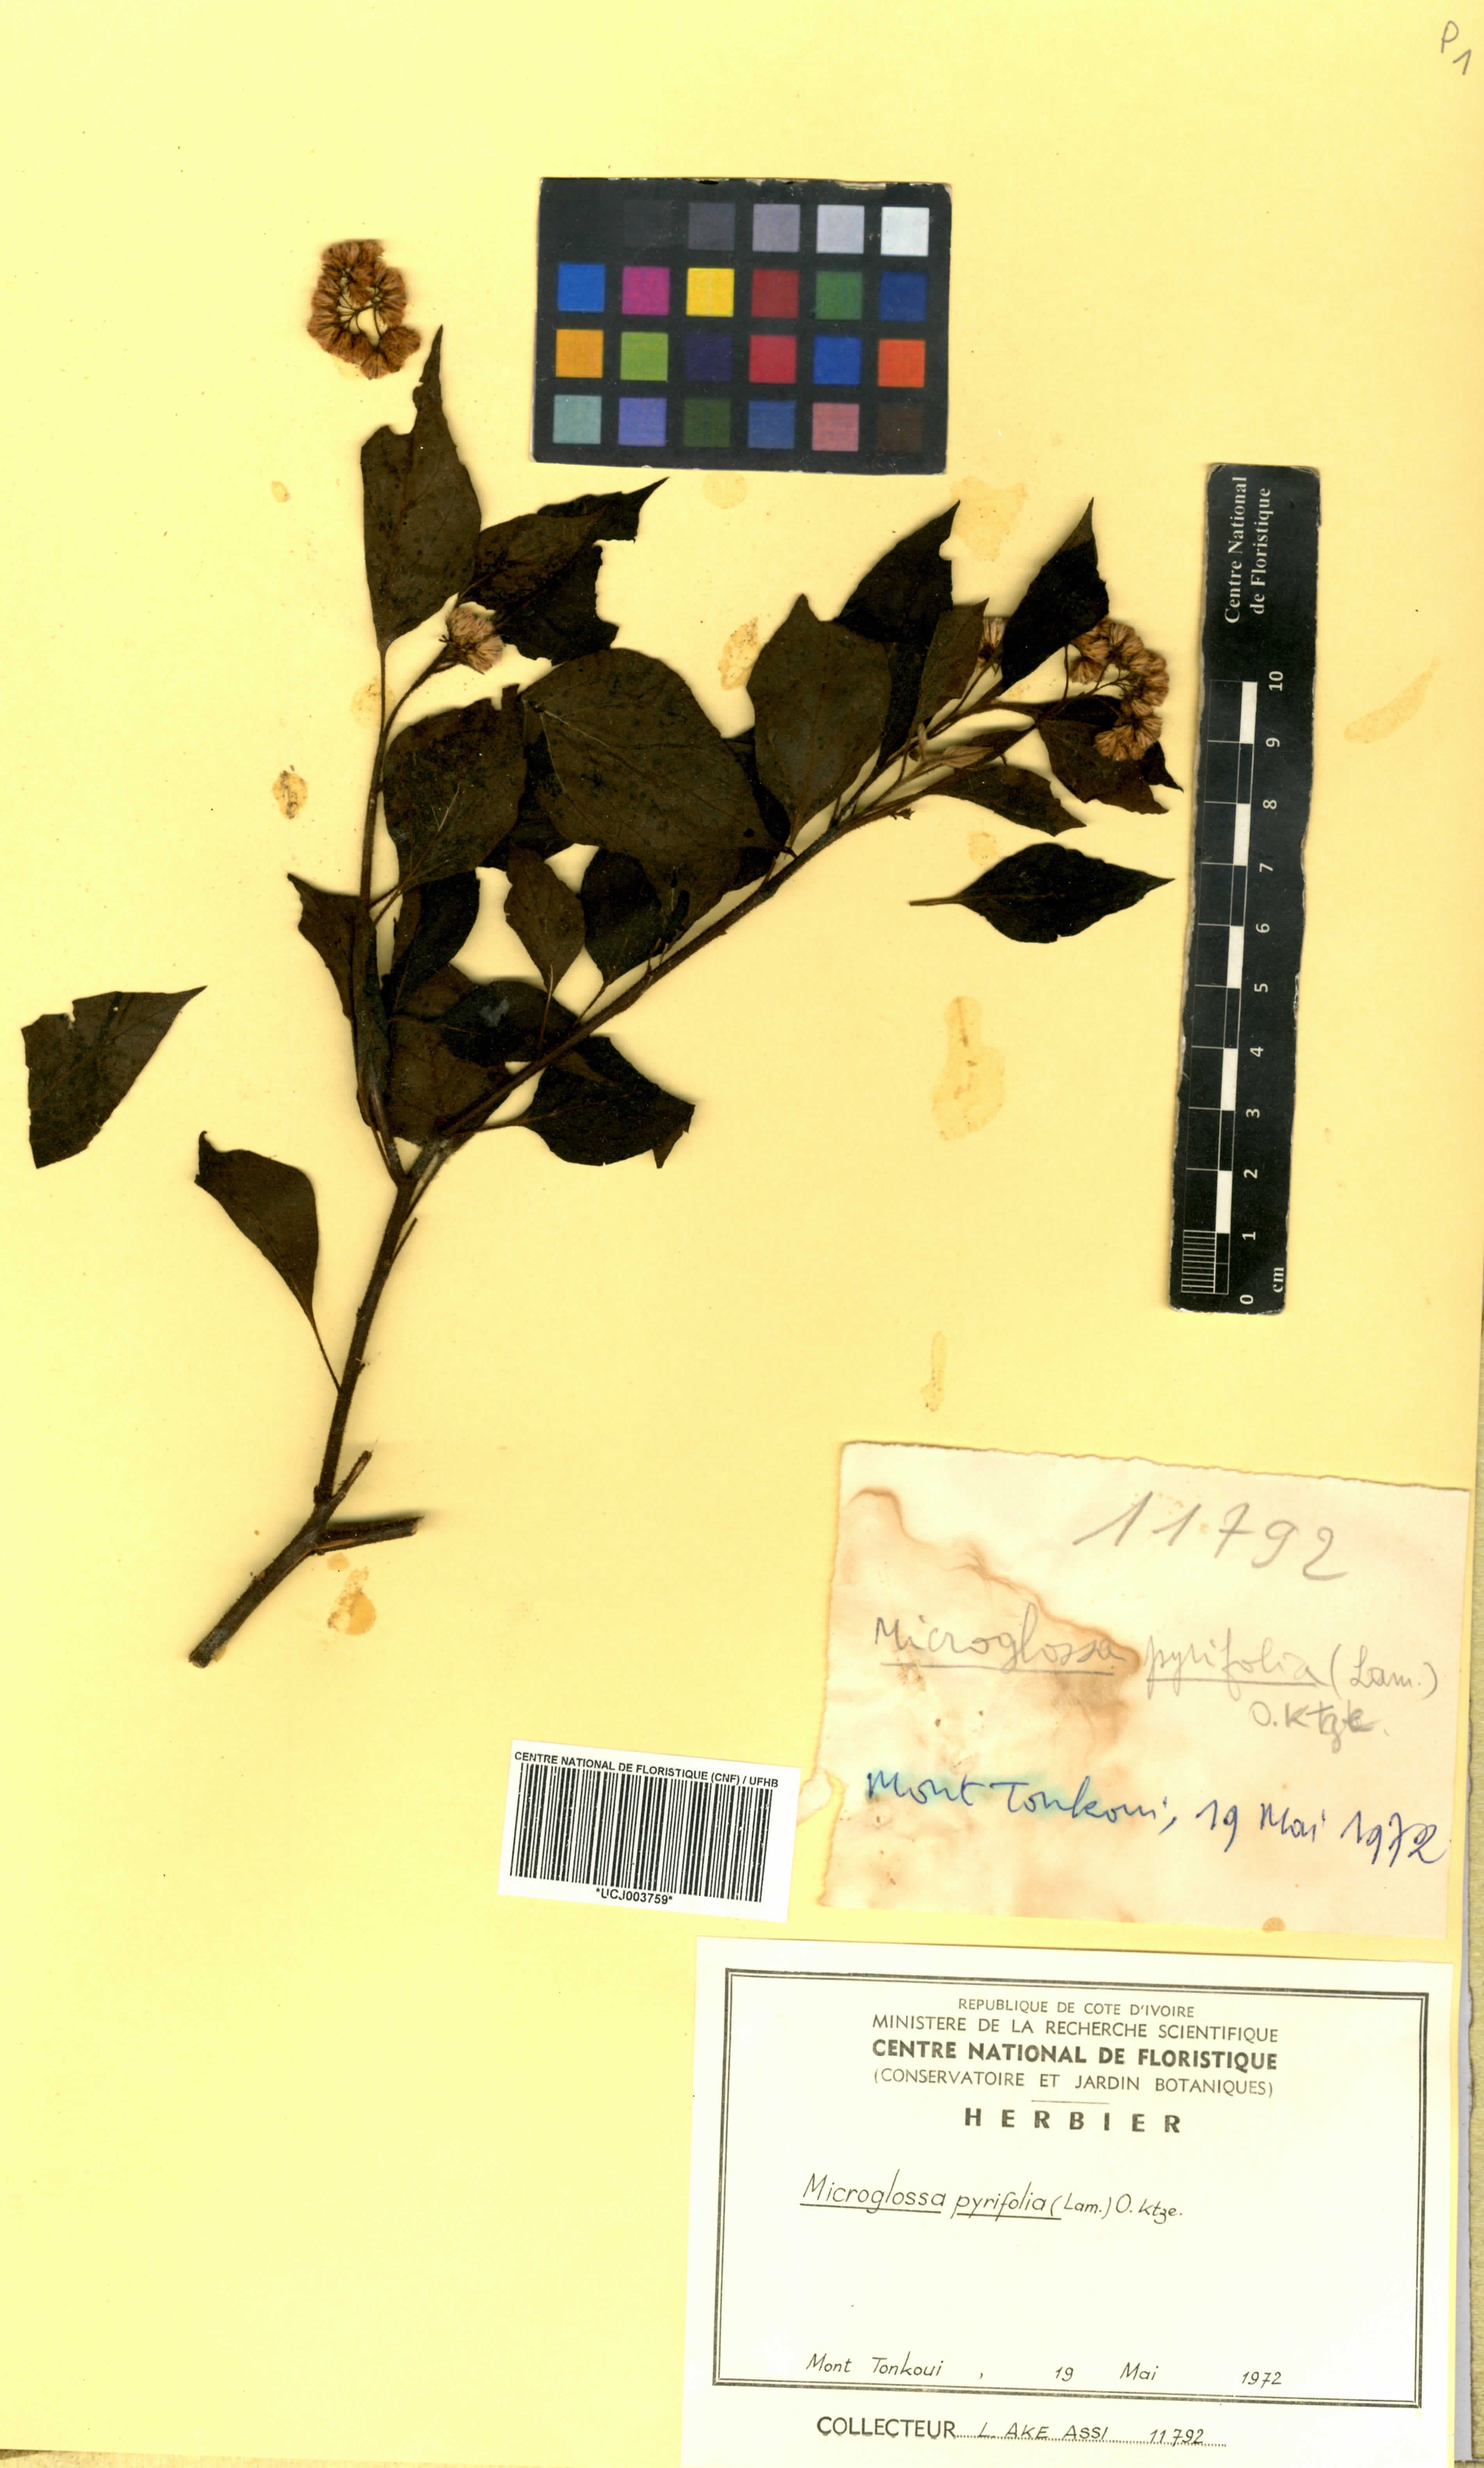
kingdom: Plantae
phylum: Tracheophyta
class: Magnoliopsida
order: Asterales
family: Asteraceae
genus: Microglossa
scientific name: Microglossa pyrifolia
